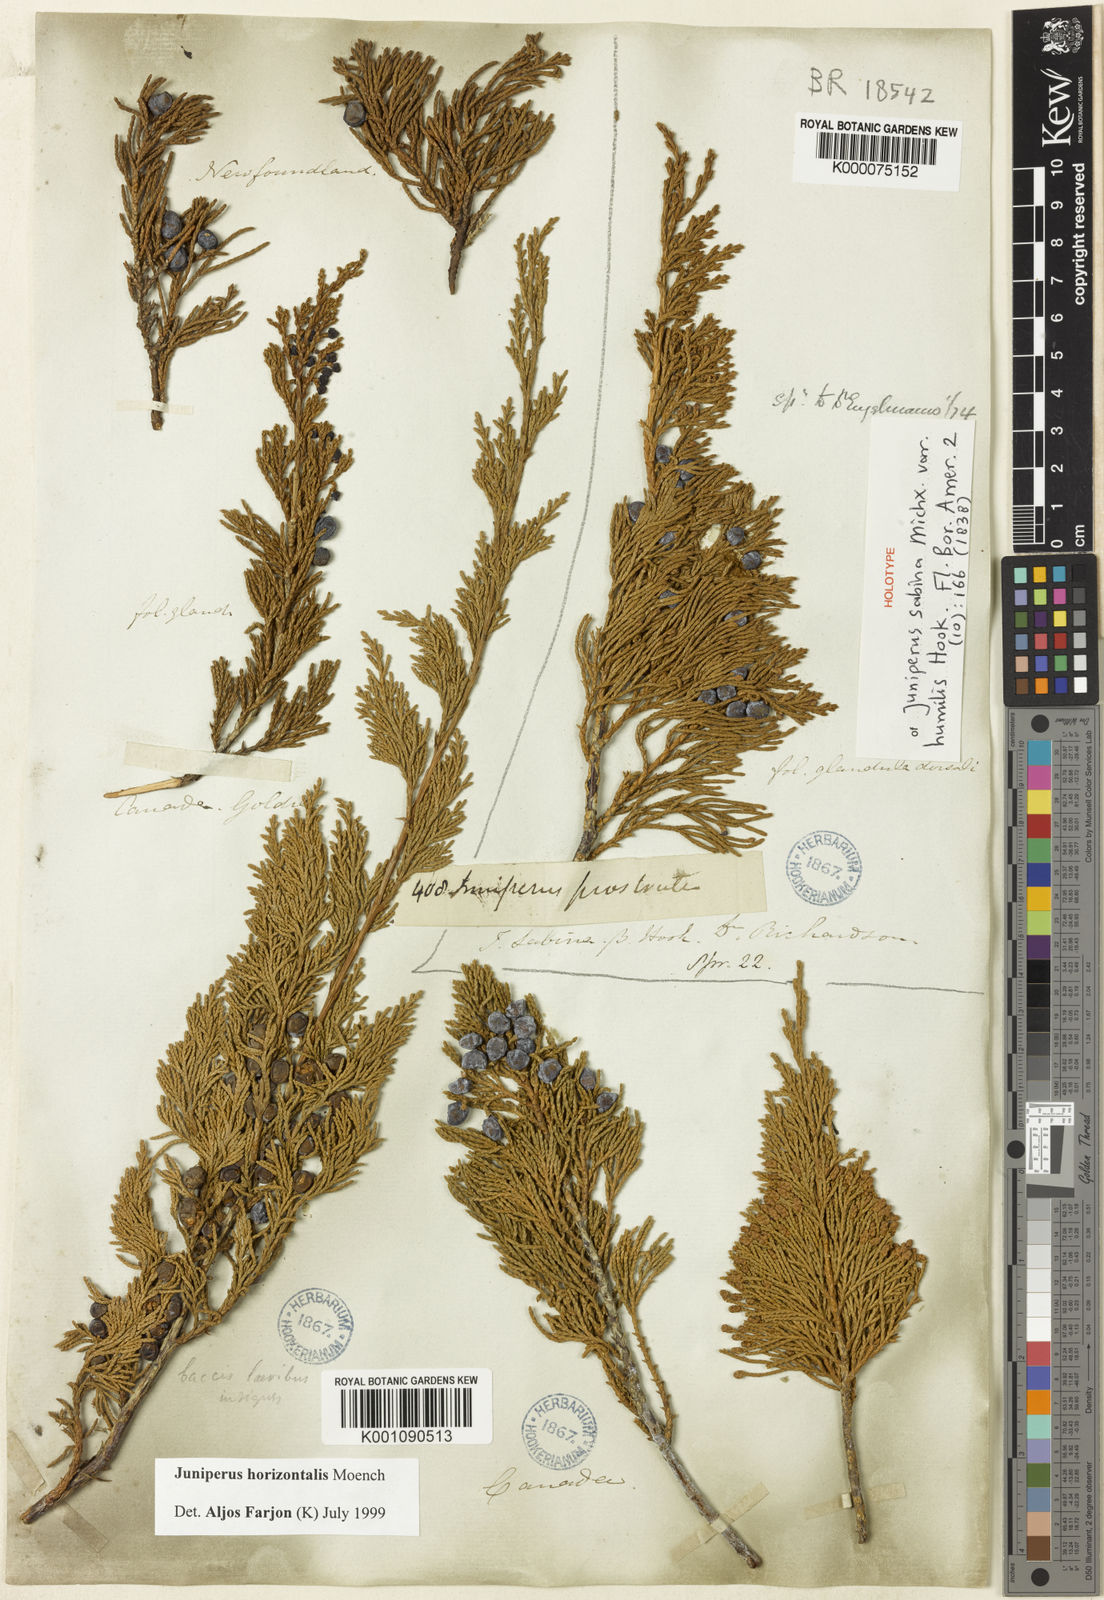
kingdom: Plantae
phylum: Tracheophyta
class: Pinopsida
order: Pinales
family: Cupressaceae
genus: Juniperus
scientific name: Juniperus horizontalis
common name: Creeping juniper
